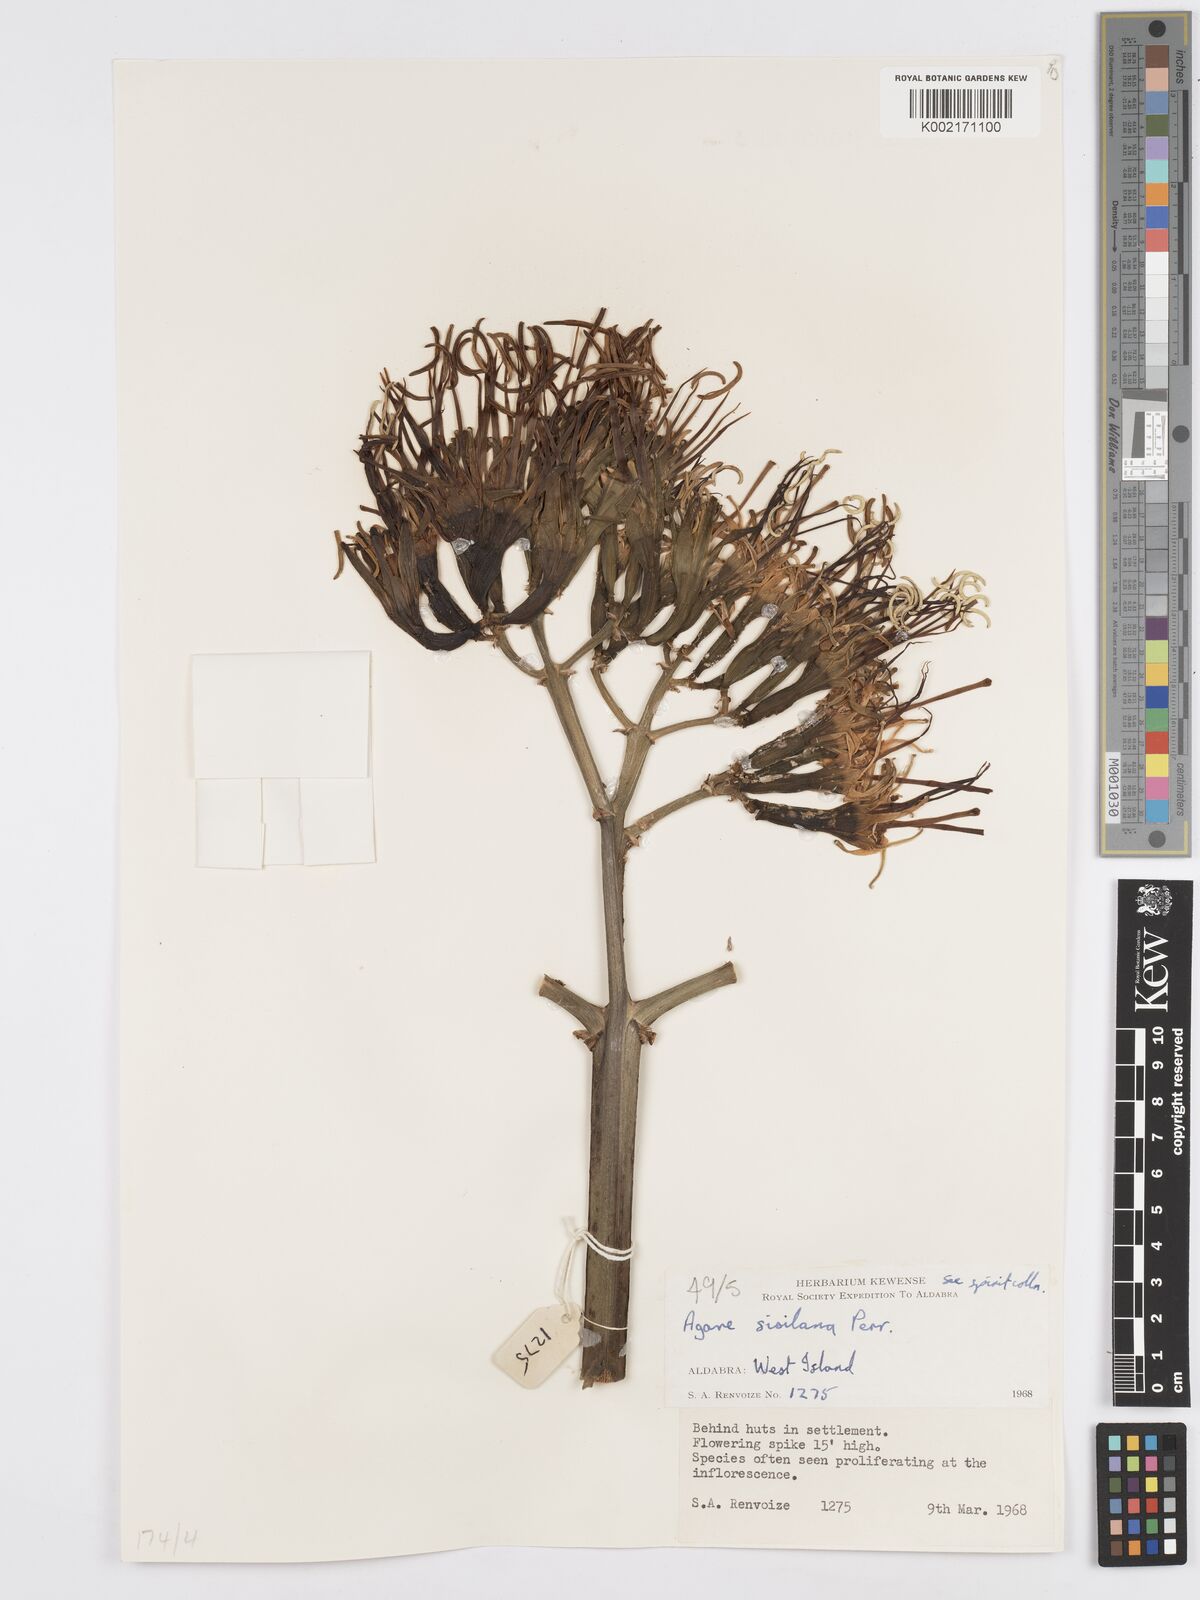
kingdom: Plantae
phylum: Tracheophyta
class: Liliopsida
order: Asparagales
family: Asparagaceae
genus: Agave
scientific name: Agave sisalana
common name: Sisal hemp
